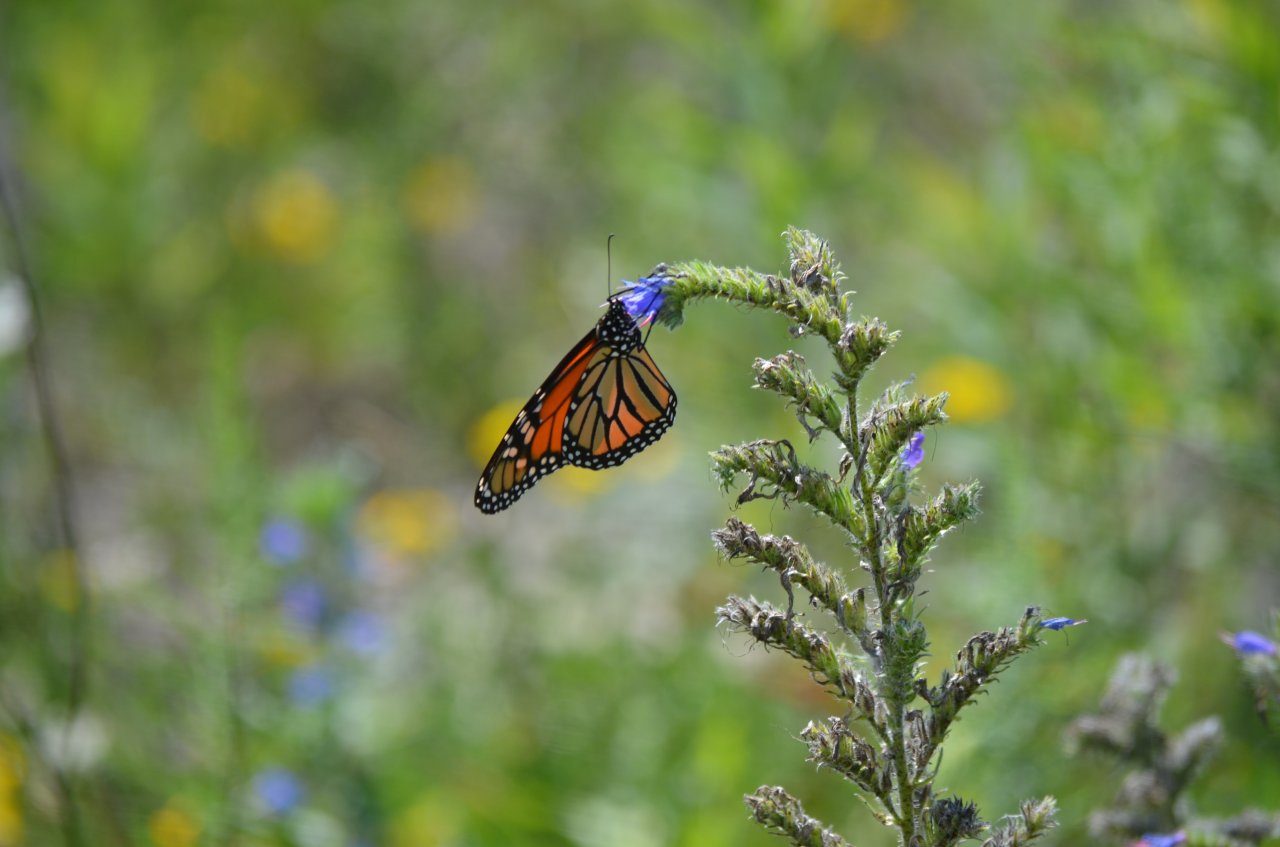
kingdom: Animalia
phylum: Arthropoda
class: Insecta
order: Lepidoptera
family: Nymphalidae
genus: Danaus
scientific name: Danaus plexippus
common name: Monarch
